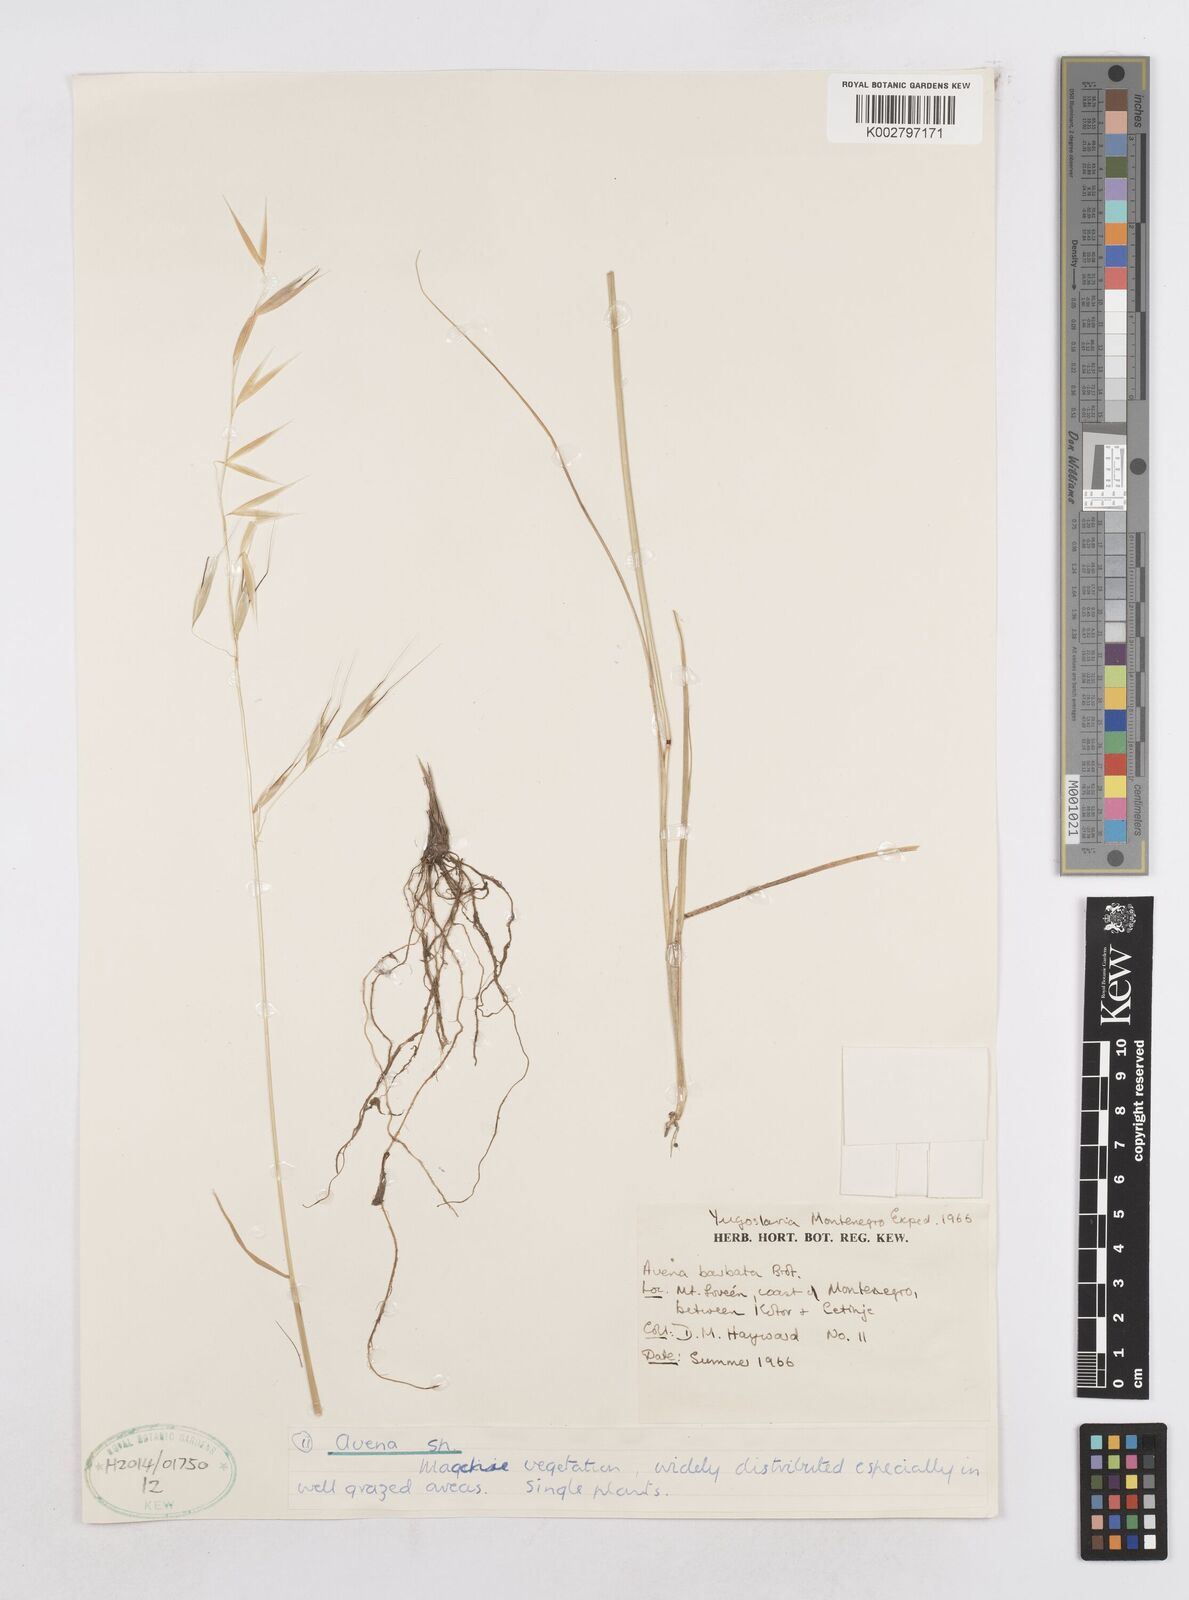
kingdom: Plantae
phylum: Tracheophyta
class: Liliopsida
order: Poales
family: Poaceae
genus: Avena
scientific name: Avena
